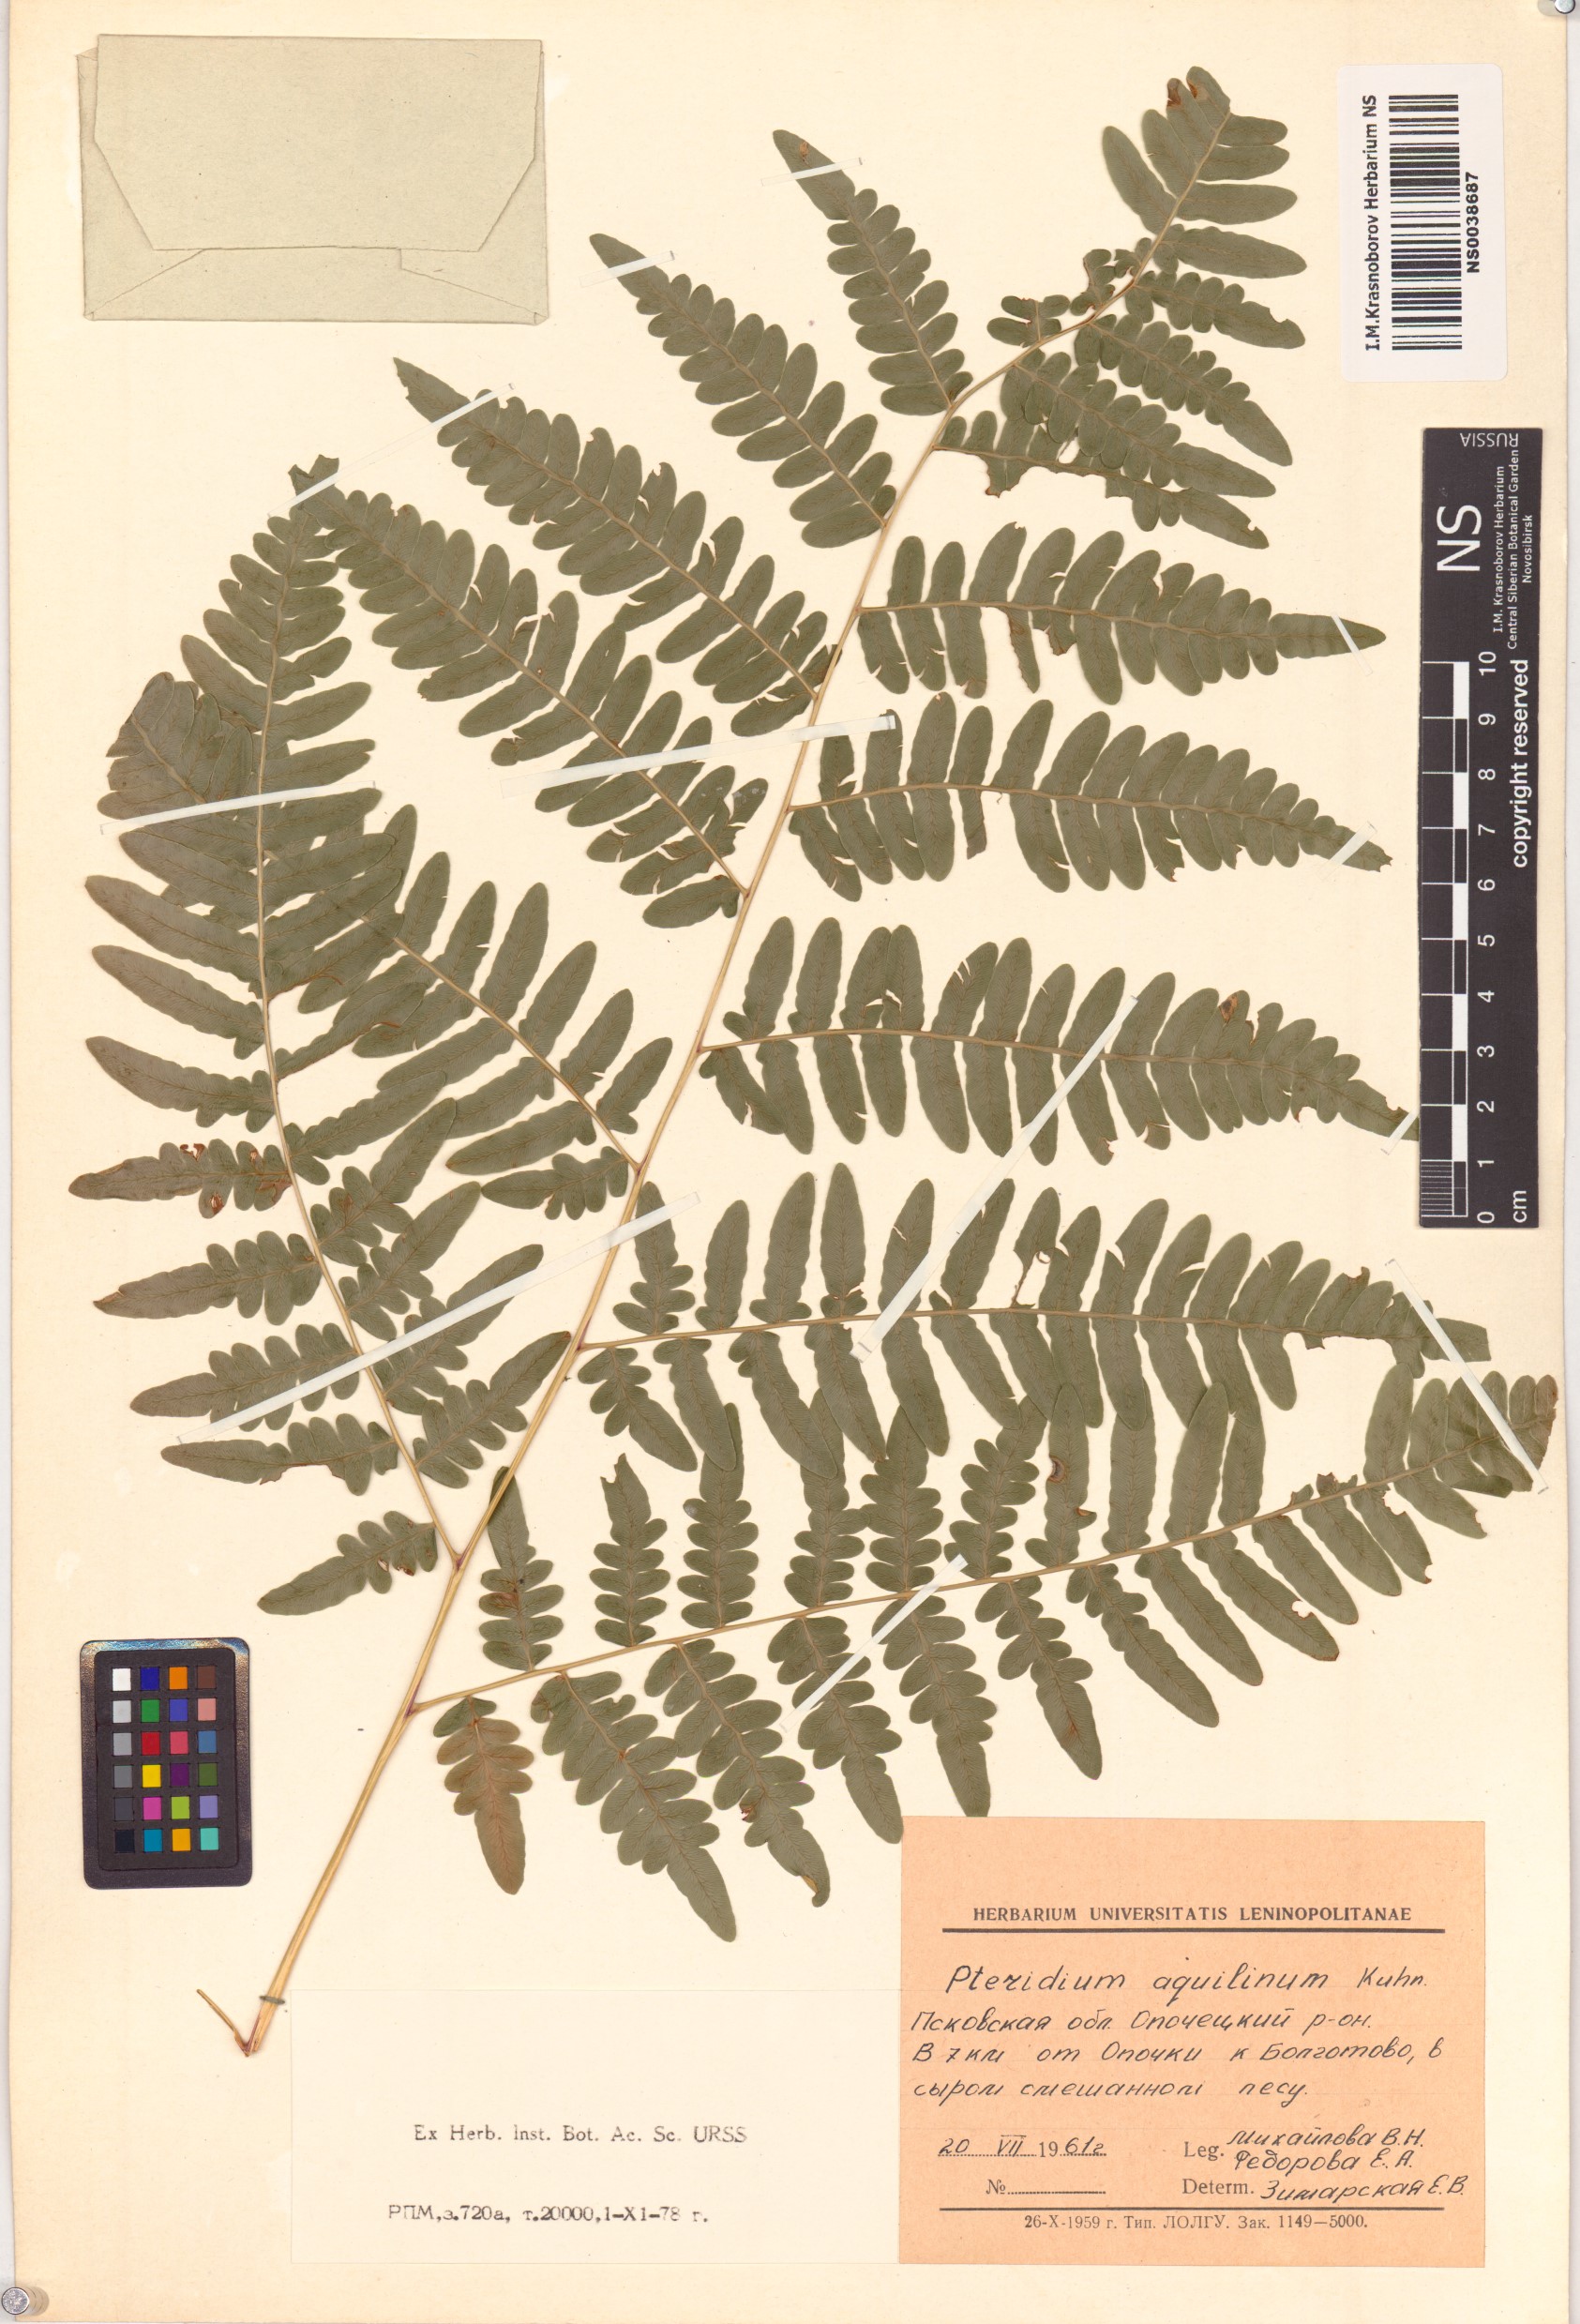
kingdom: Plantae
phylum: Tracheophyta
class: Polypodiopsida
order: Polypodiales
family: Dennstaedtiaceae
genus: Pteridium
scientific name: Pteridium aquilinum
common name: Bracken
